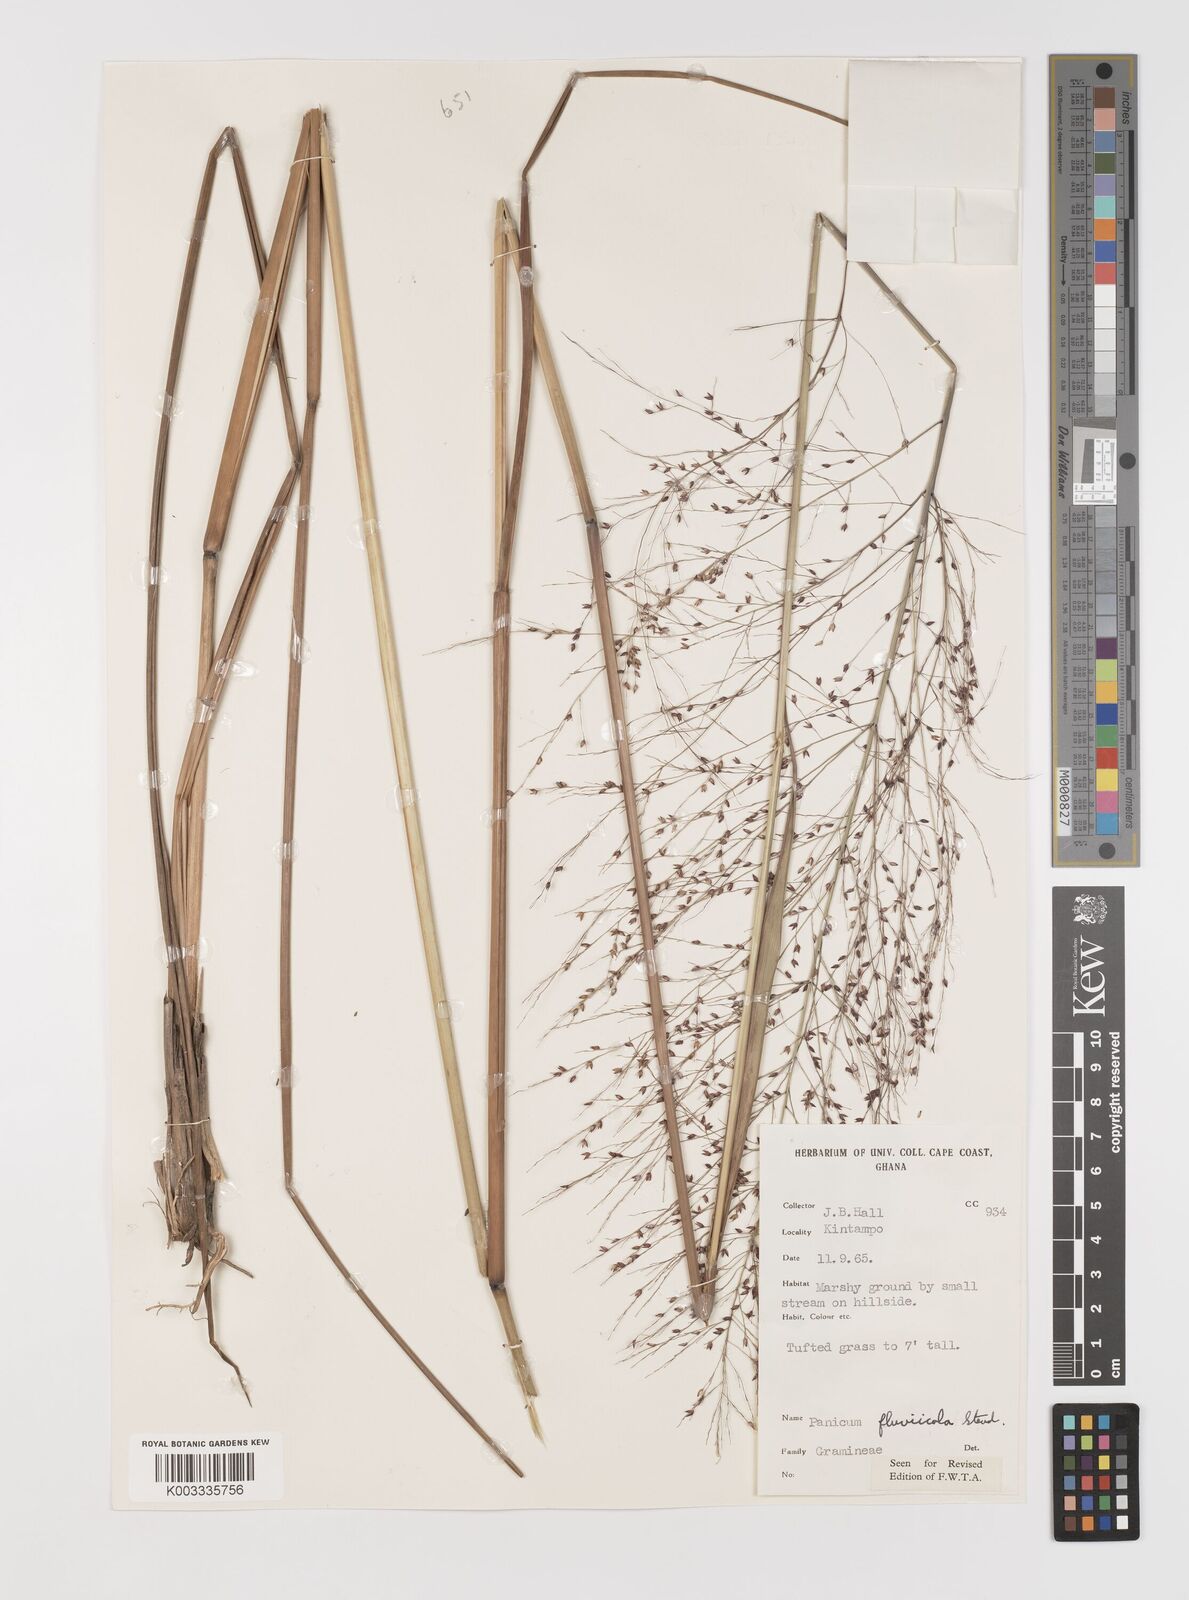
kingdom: Plantae
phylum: Tracheophyta
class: Liliopsida
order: Poales
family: Poaceae
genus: Panicum
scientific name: Panicum fluviicola
